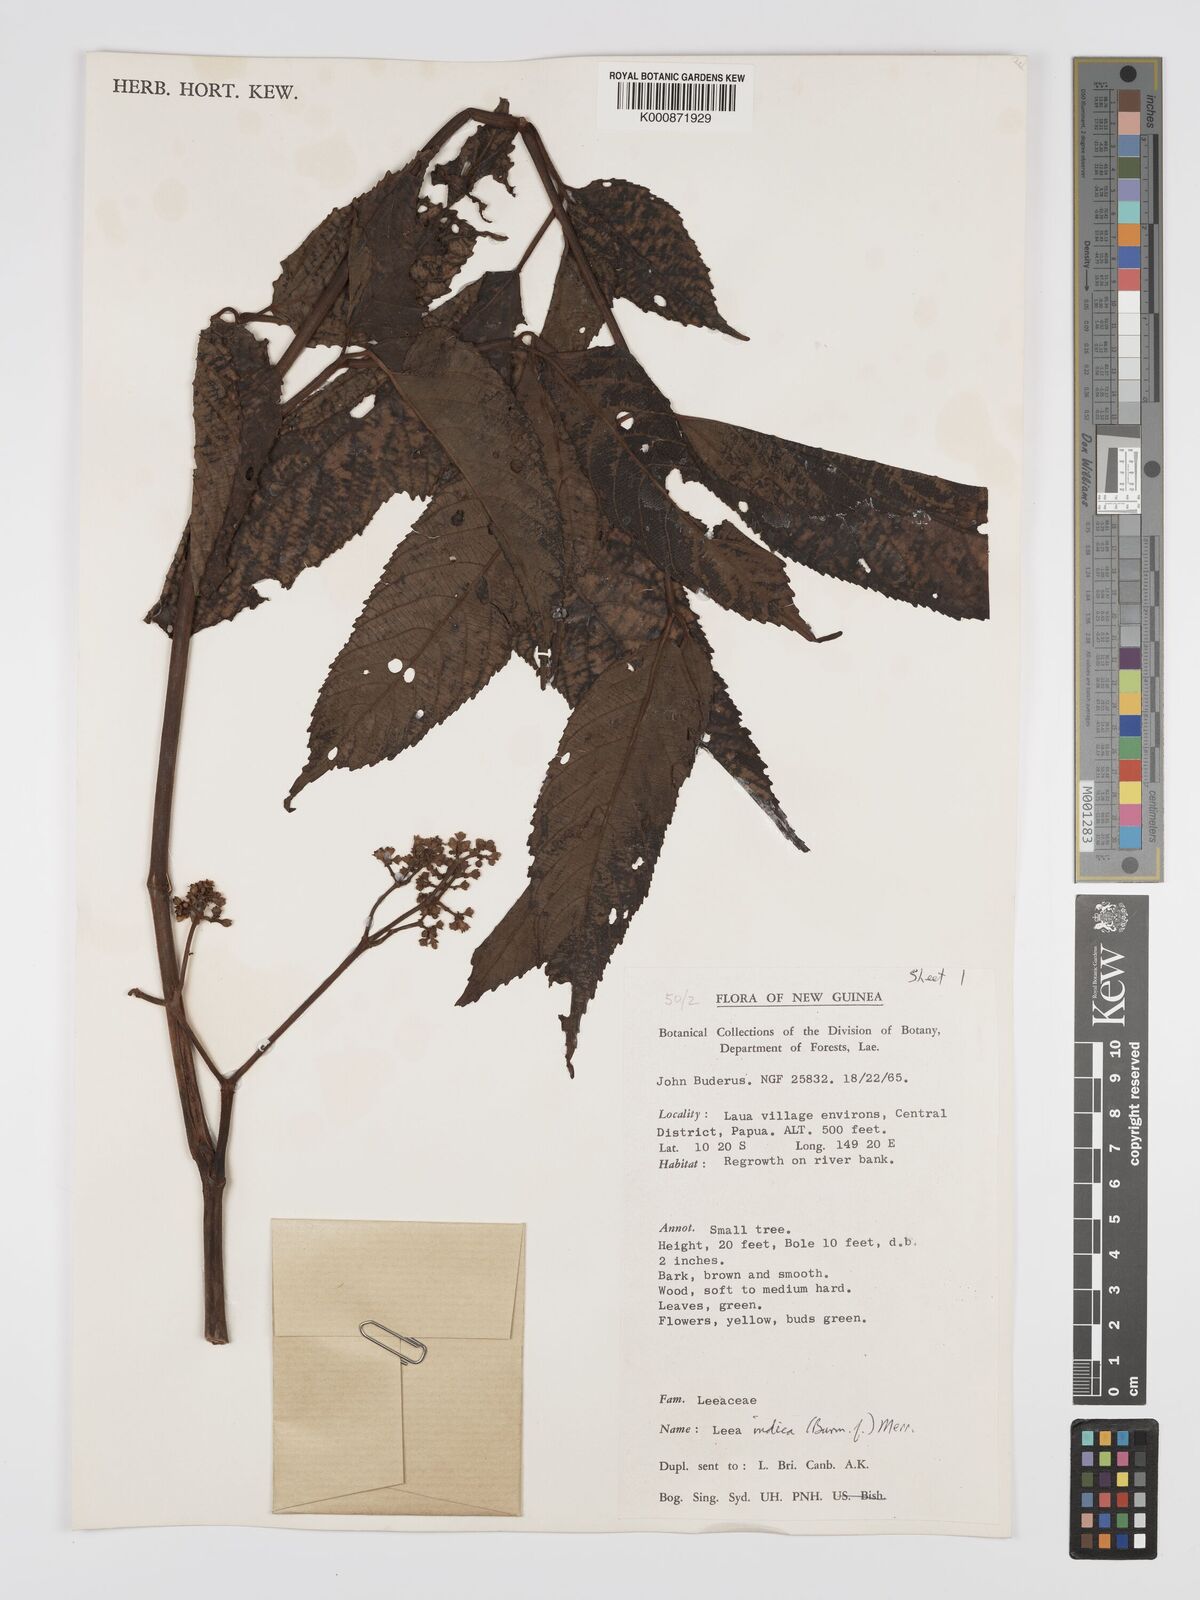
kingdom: Plantae
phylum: Tracheophyta
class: Magnoliopsida
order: Vitales
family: Vitaceae
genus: Leea
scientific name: Leea indica
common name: Bandicoot-berry
